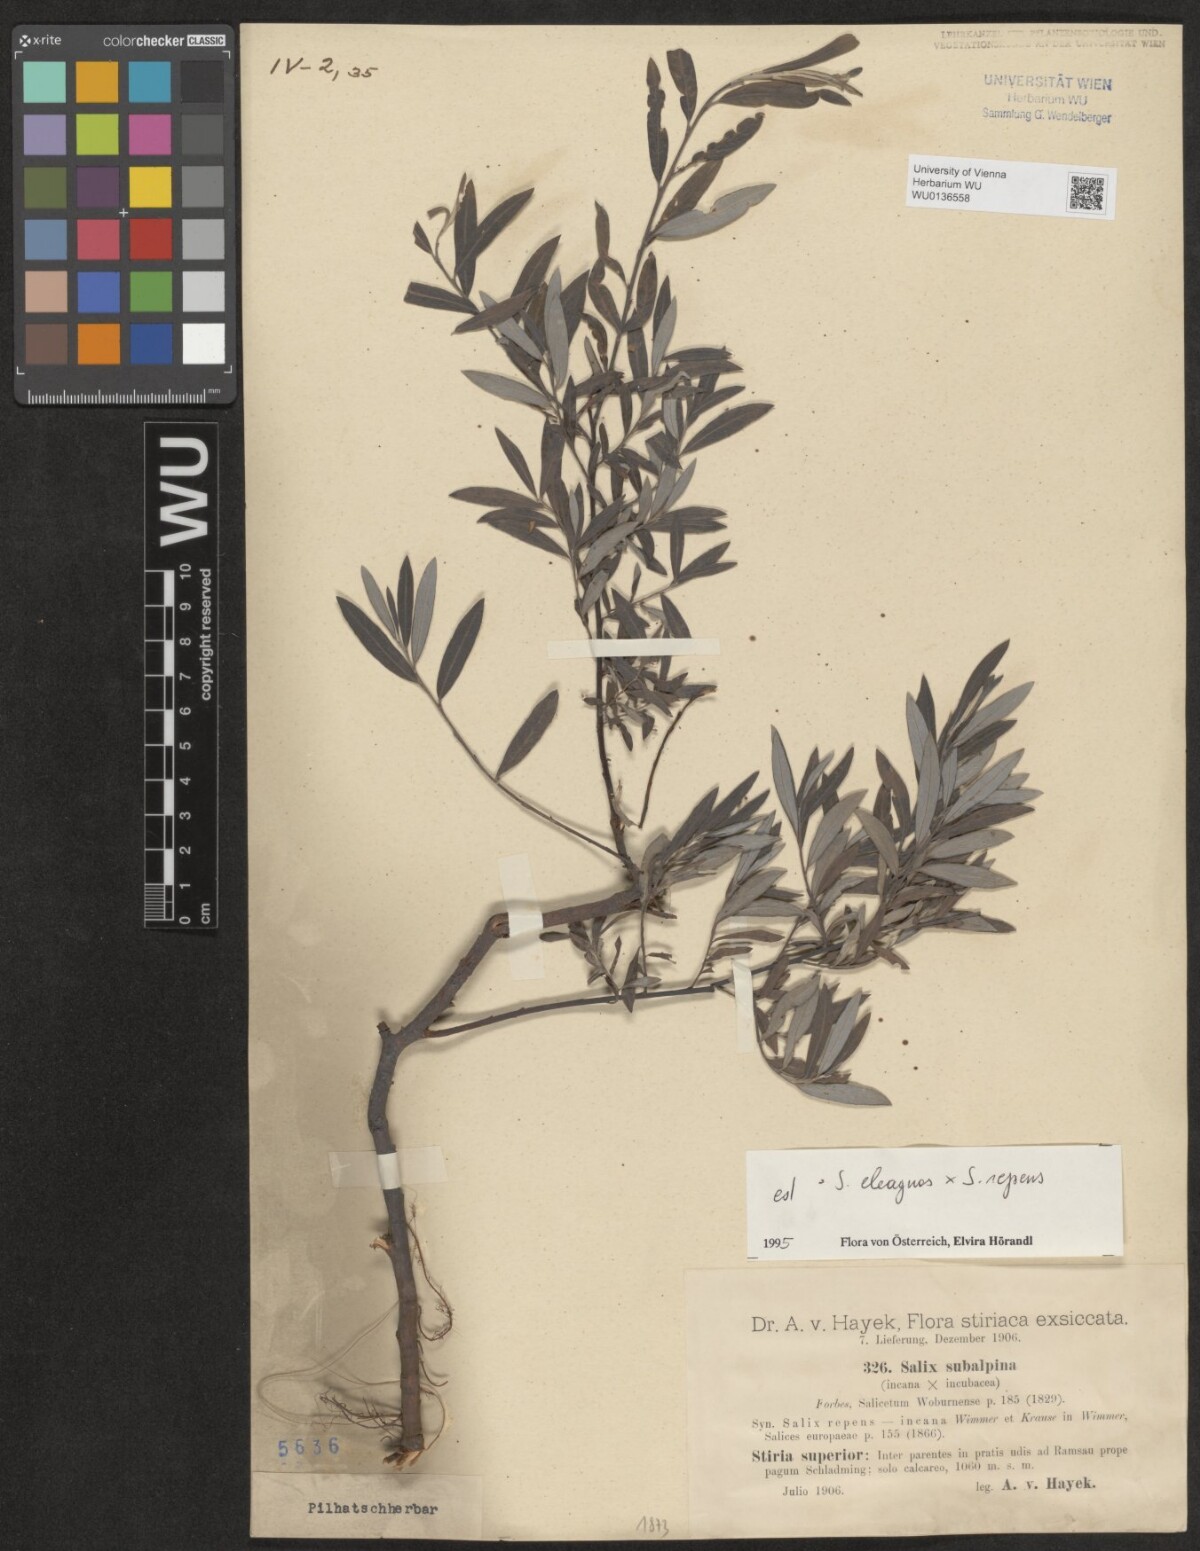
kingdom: Plantae
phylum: Tracheophyta
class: Magnoliopsida
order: Malpighiales
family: Salicaceae
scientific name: Salicaceae
